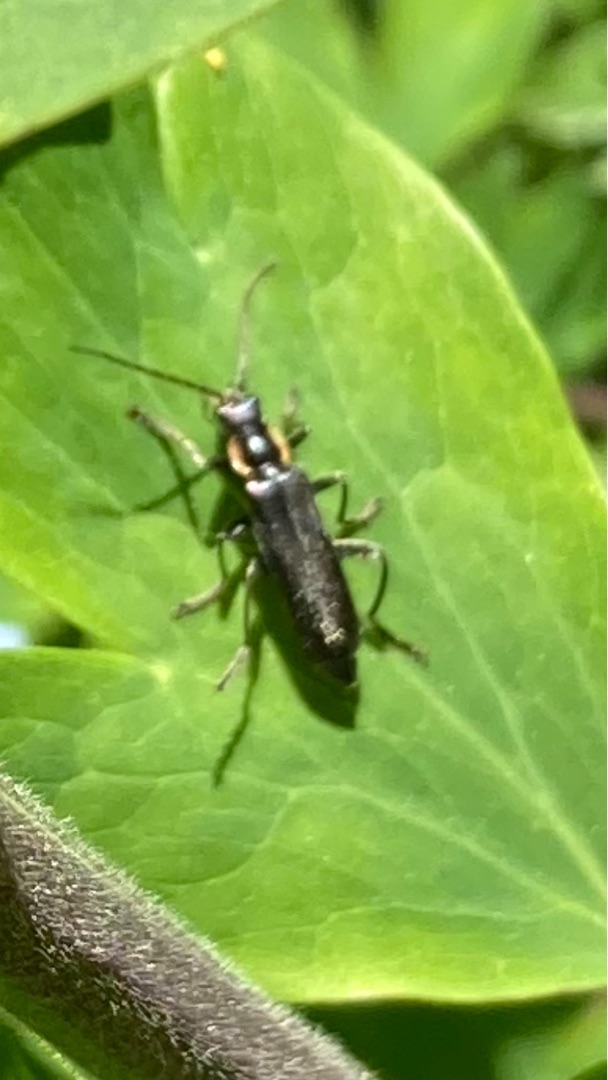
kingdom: Animalia
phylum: Arthropoda
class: Insecta
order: Coleoptera
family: Cantharidae
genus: Cantharis
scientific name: Cantharis obscura
